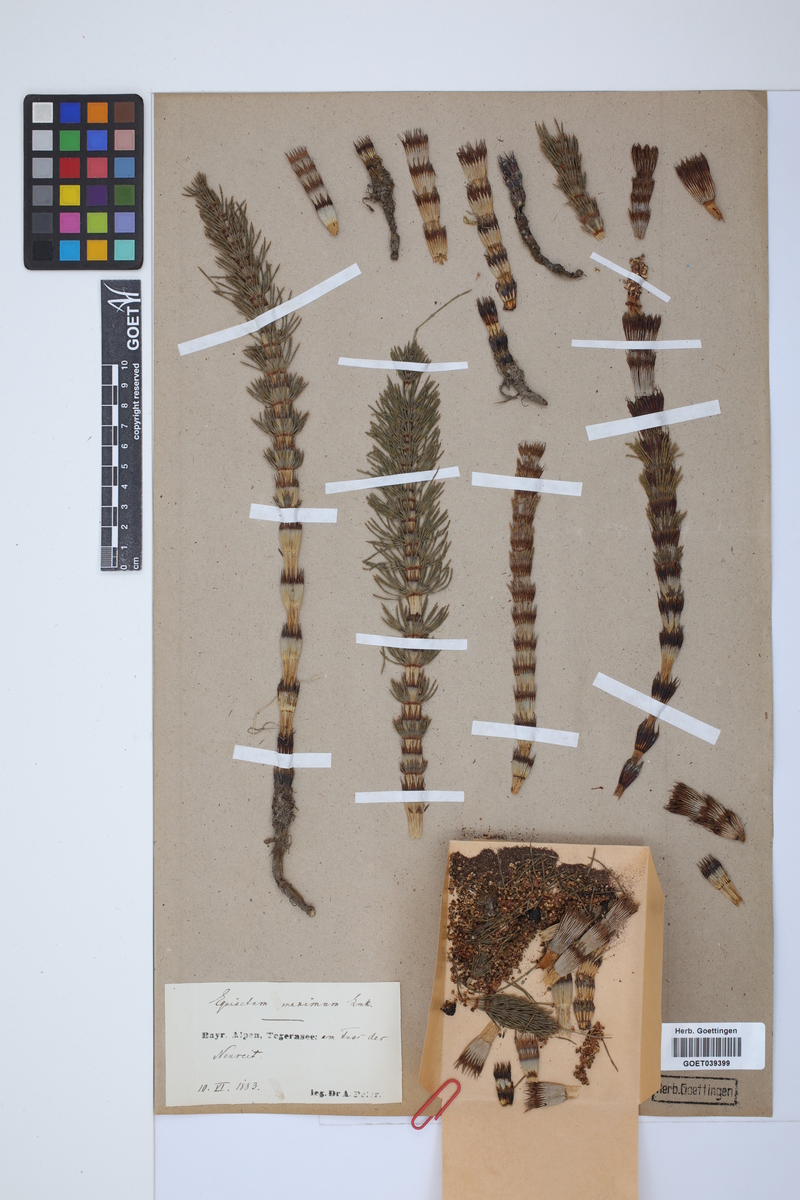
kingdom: Plantae
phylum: Tracheophyta
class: Polypodiopsida
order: Equisetales
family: Equisetaceae
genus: Equisetum
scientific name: Equisetum telmateia
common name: Great horsetail
